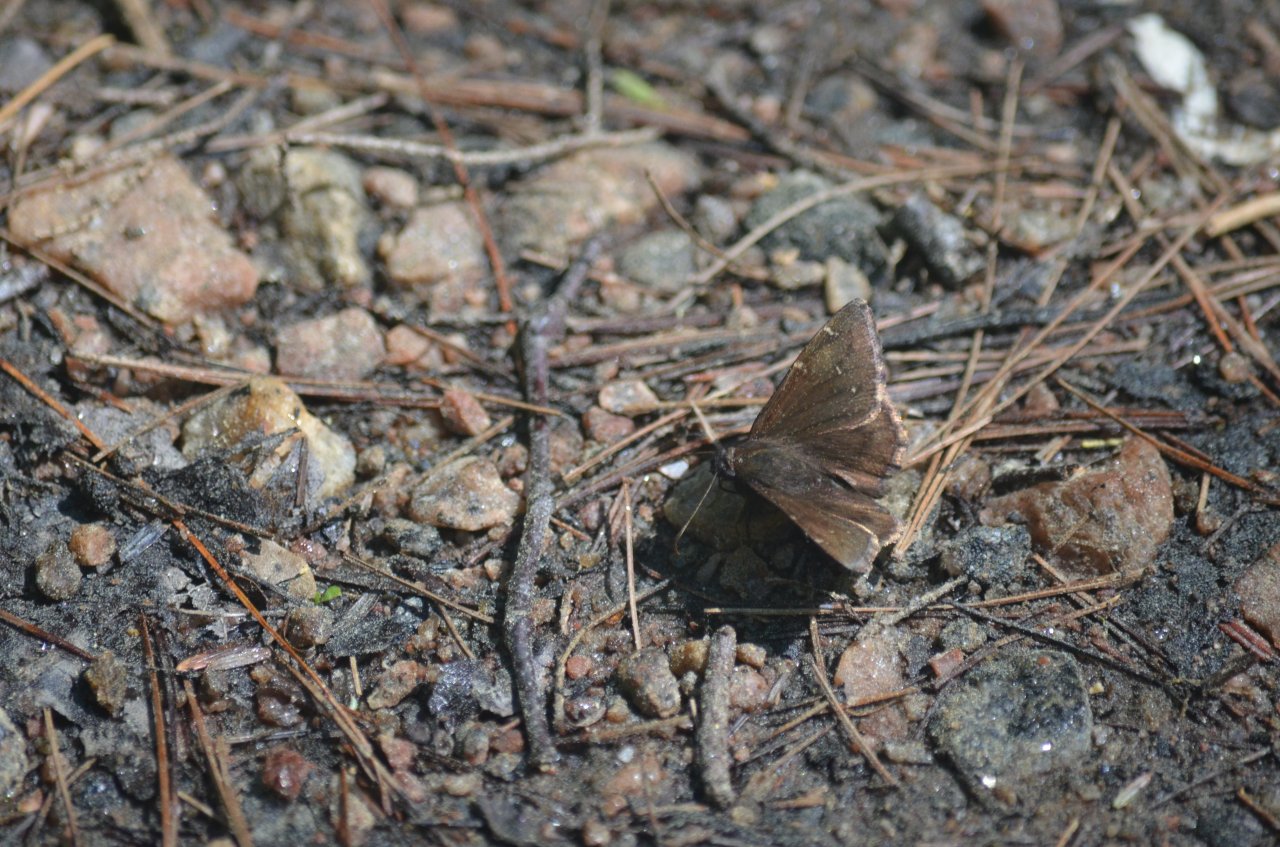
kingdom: Animalia
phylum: Arthropoda
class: Insecta
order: Lepidoptera
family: Hesperiidae
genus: Autochton
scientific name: Autochton
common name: Northern Cloudywing
